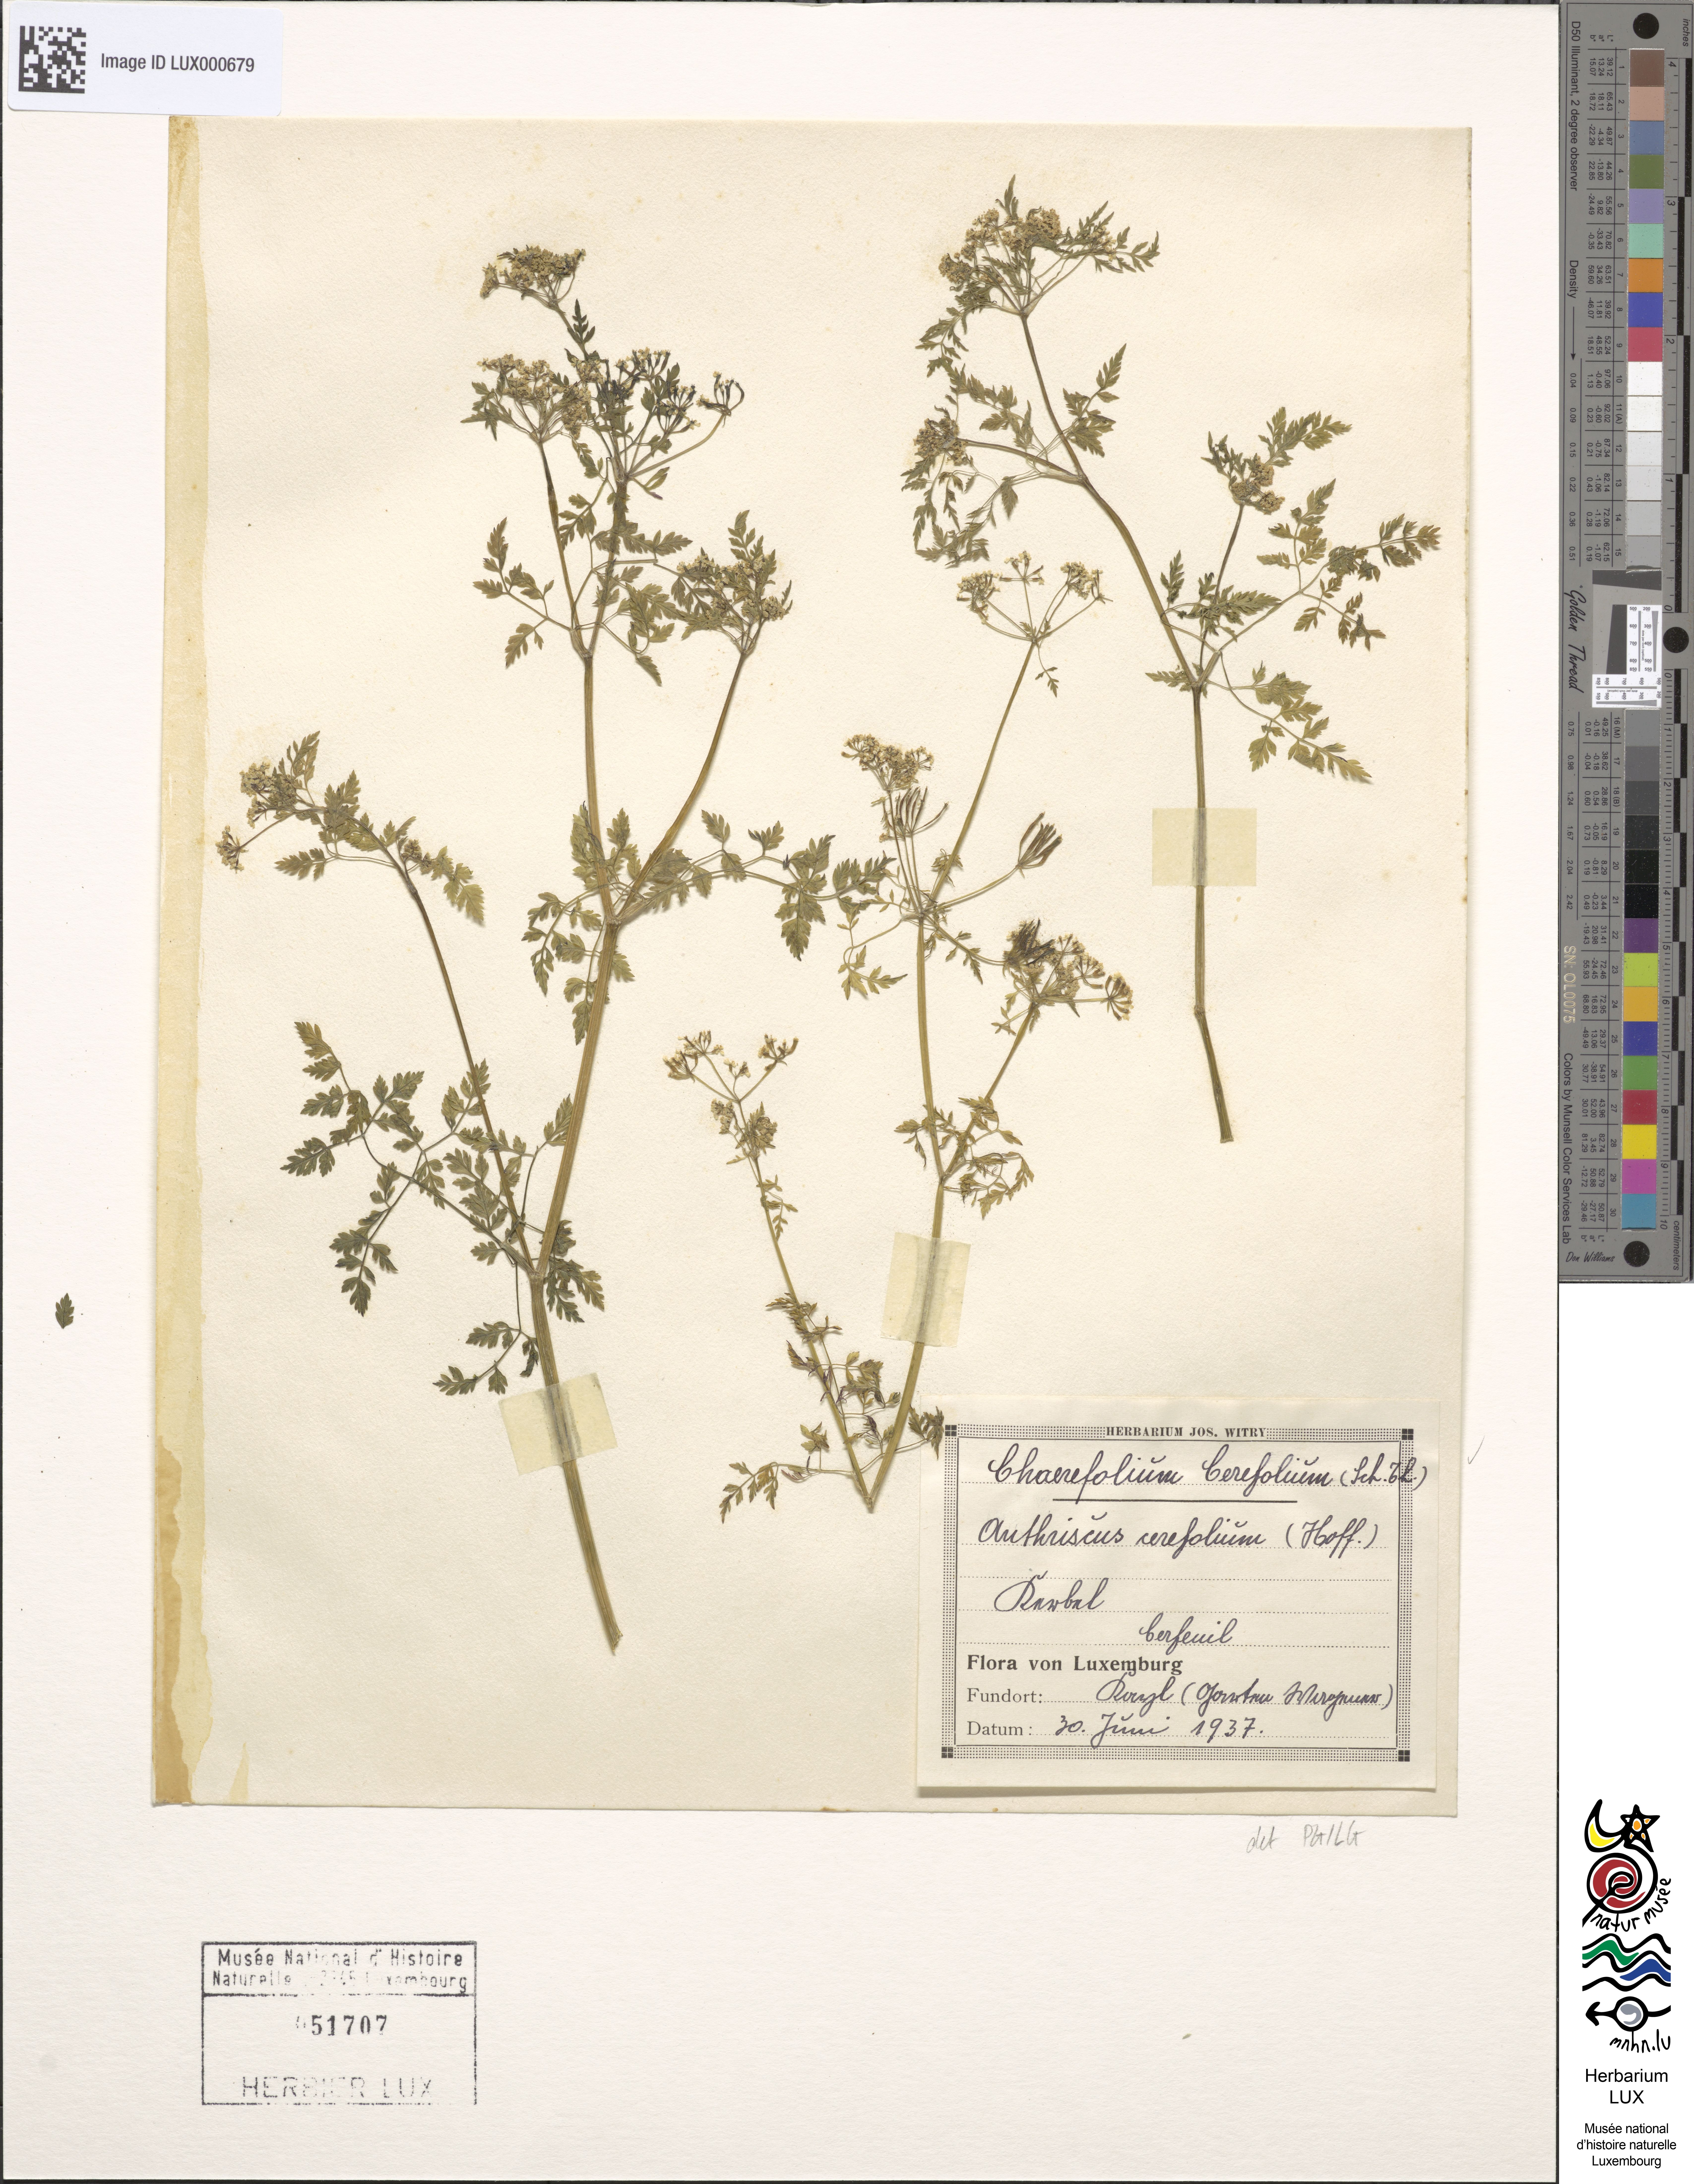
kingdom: Plantae
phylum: Tracheophyta
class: Magnoliopsida
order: Apiales
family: Apiaceae
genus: Anthriscus
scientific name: Anthriscus cerefolium
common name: Garden chervil
